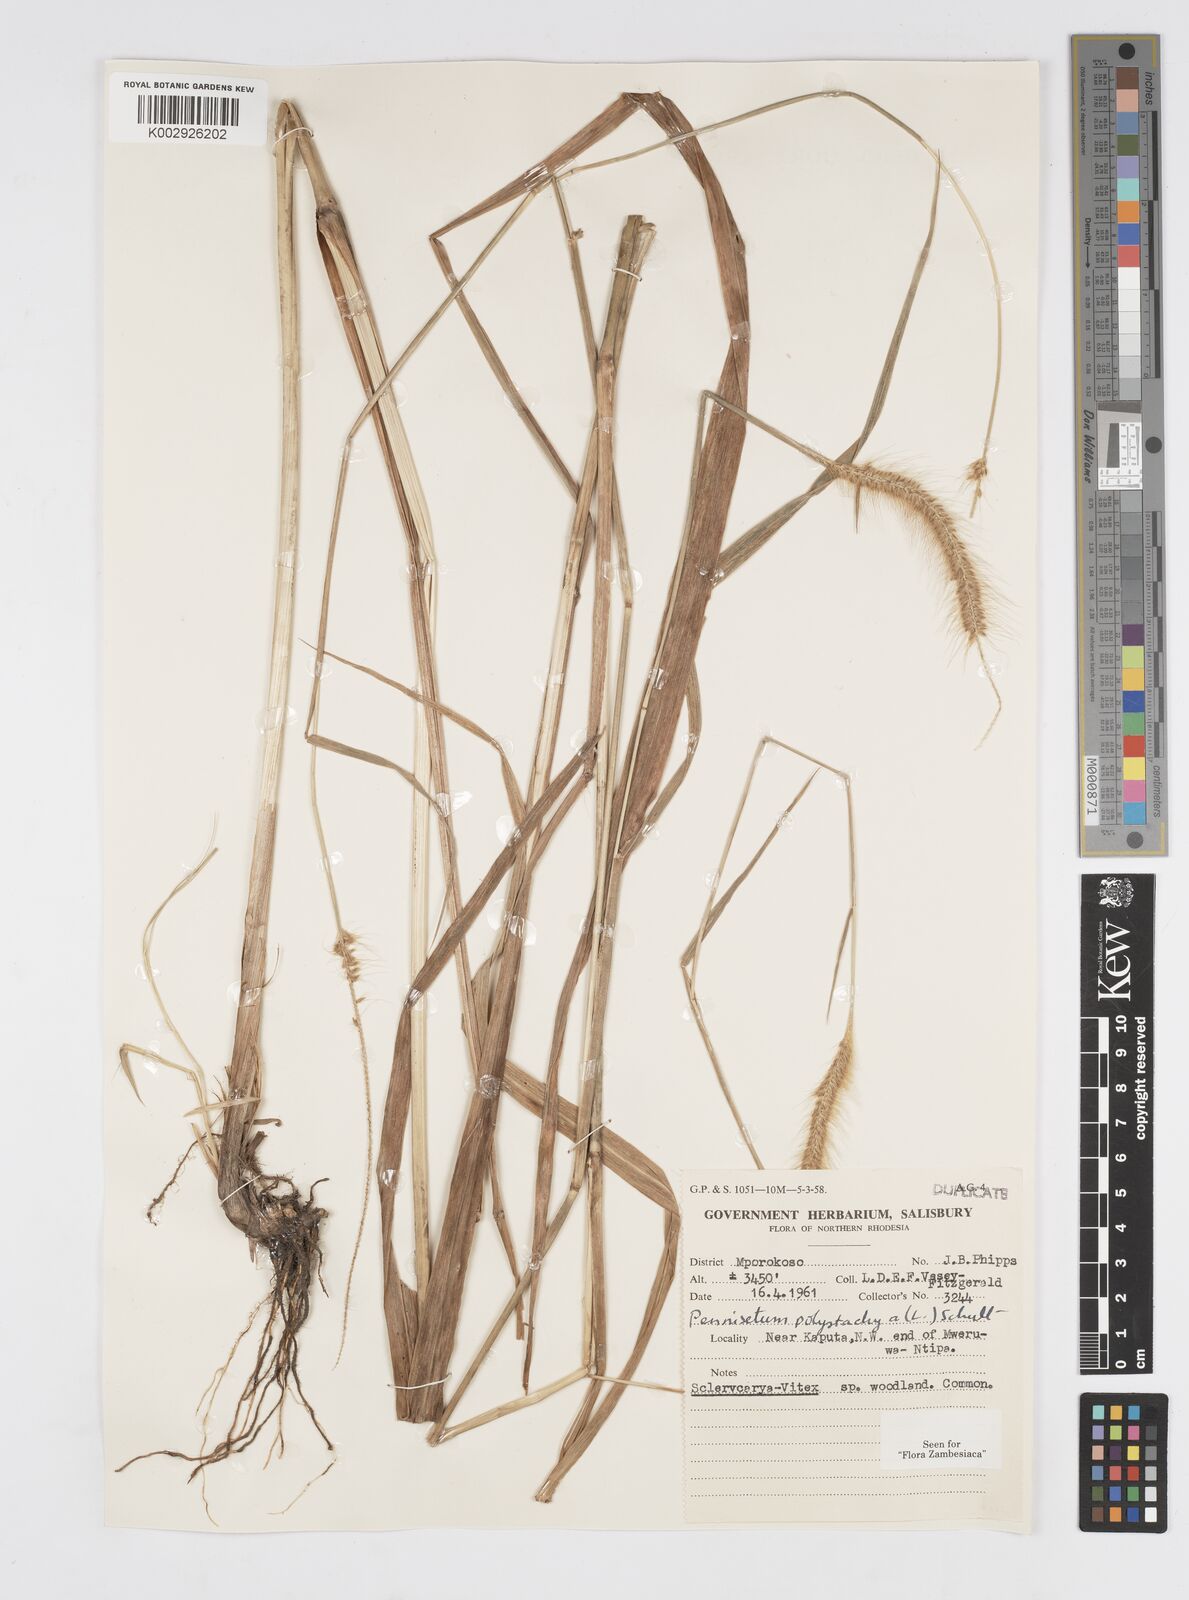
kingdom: Plantae
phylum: Tracheophyta
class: Liliopsida
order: Poales
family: Poaceae
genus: Setaria
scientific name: Setaria parviflora
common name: Knotroot bristle-grass
